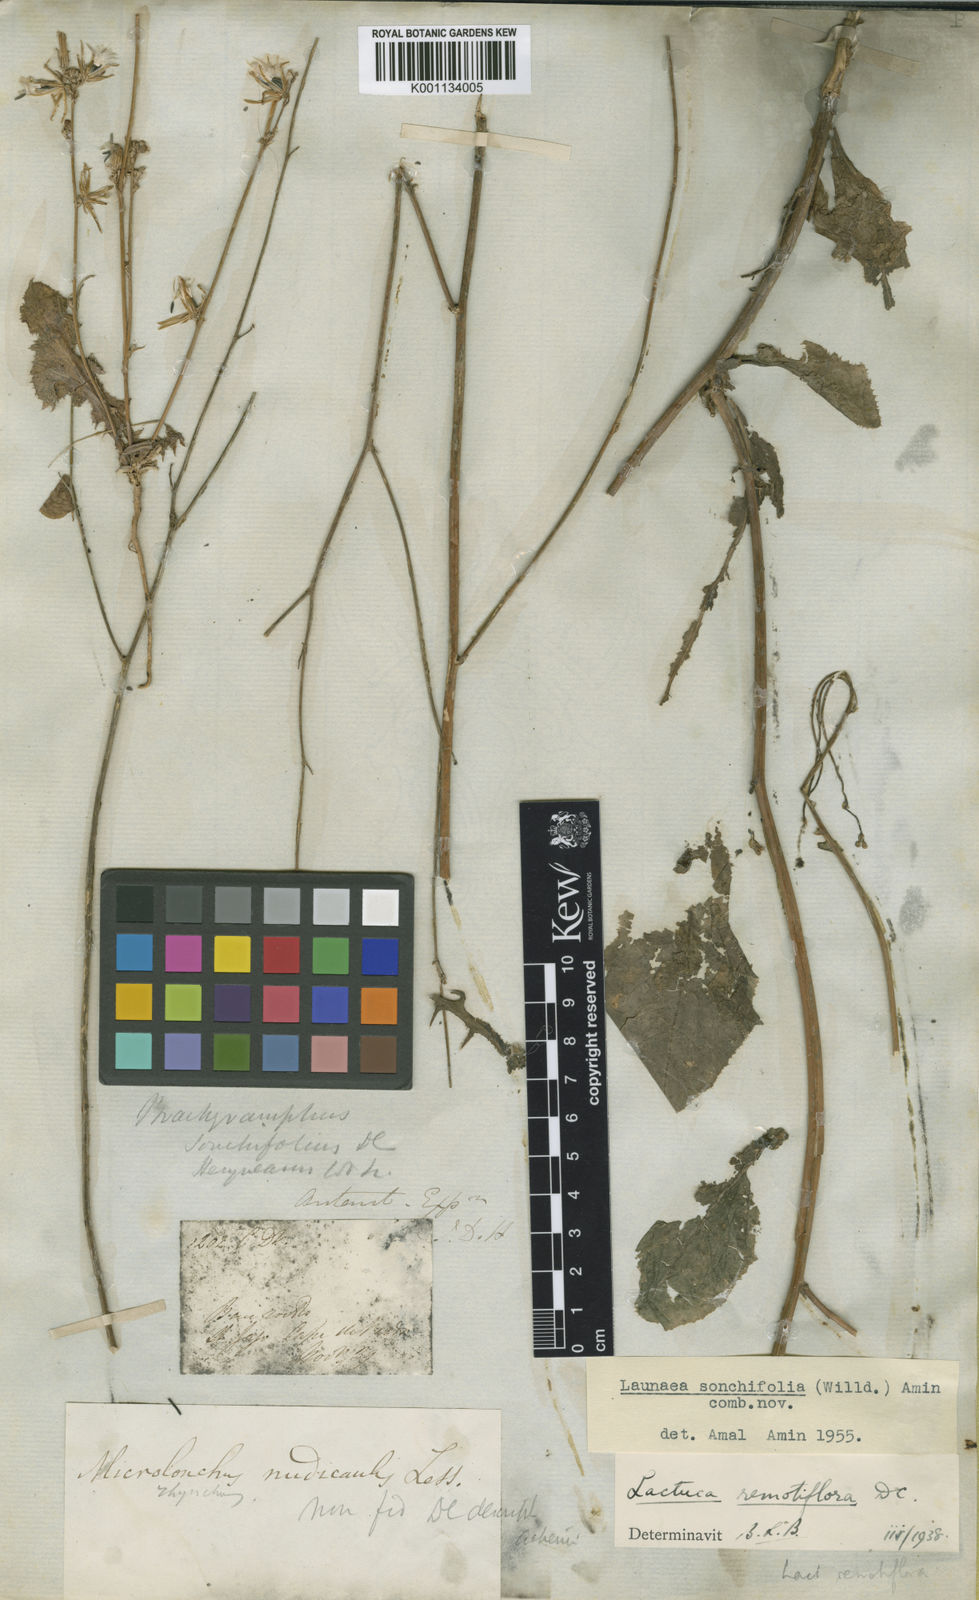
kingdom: Plantae
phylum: Tracheophyta
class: Magnoliopsida
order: Asterales
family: Asteraceae
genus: Launaea
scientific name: Launaea intybacea
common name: Achicoria azul
